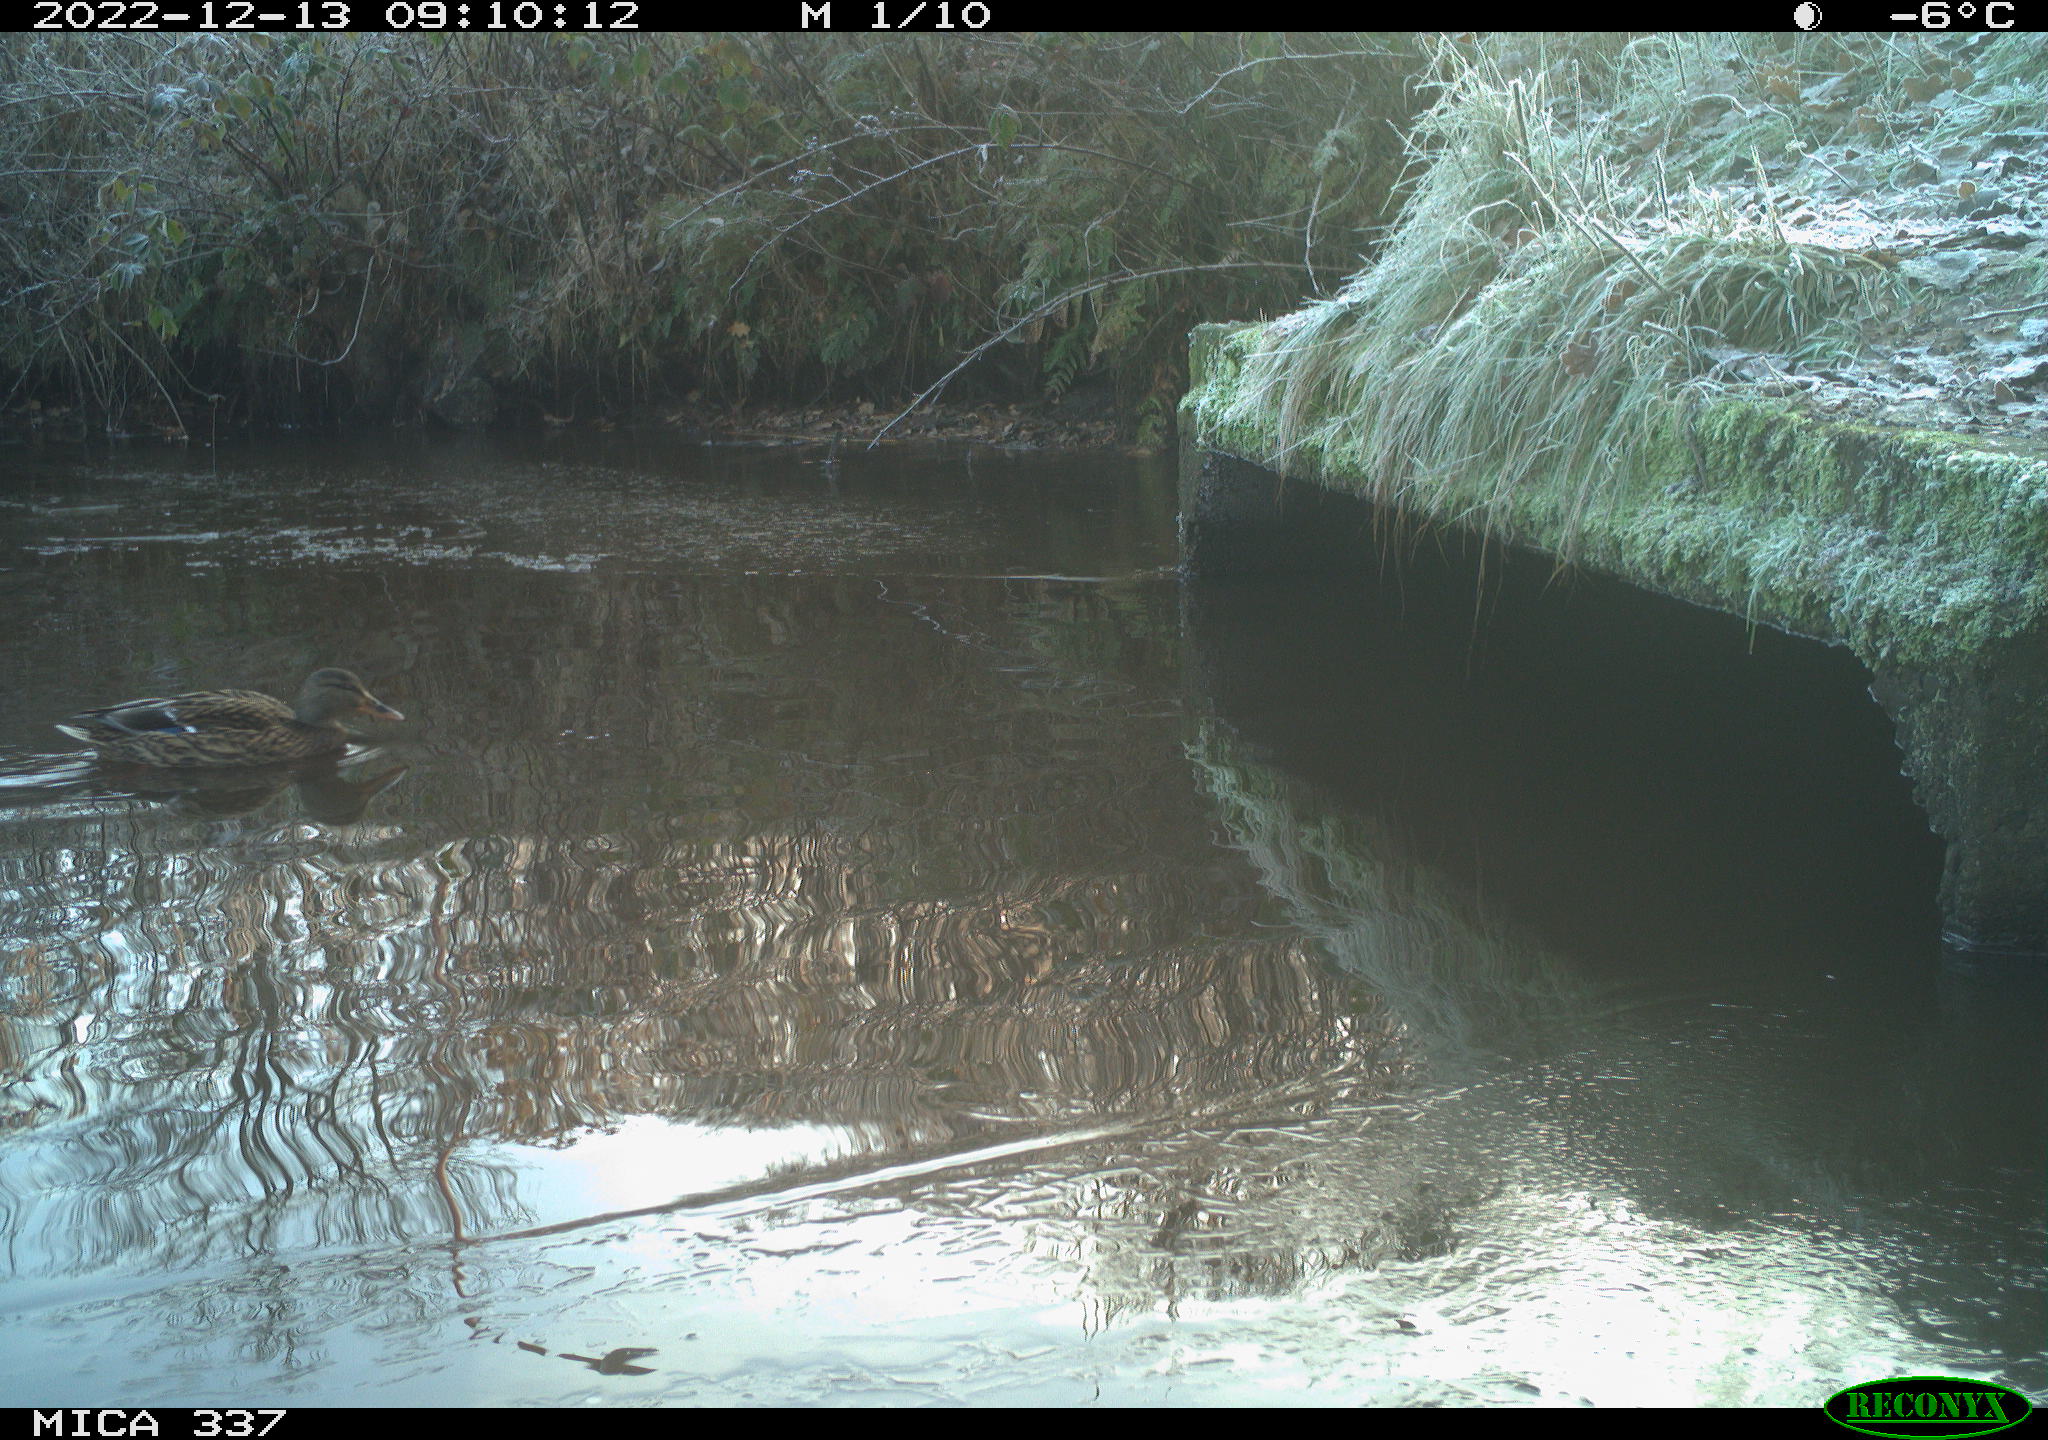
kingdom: Animalia
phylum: Chordata
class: Aves
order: Anseriformes
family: Anatidae
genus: Anas
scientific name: Anas
